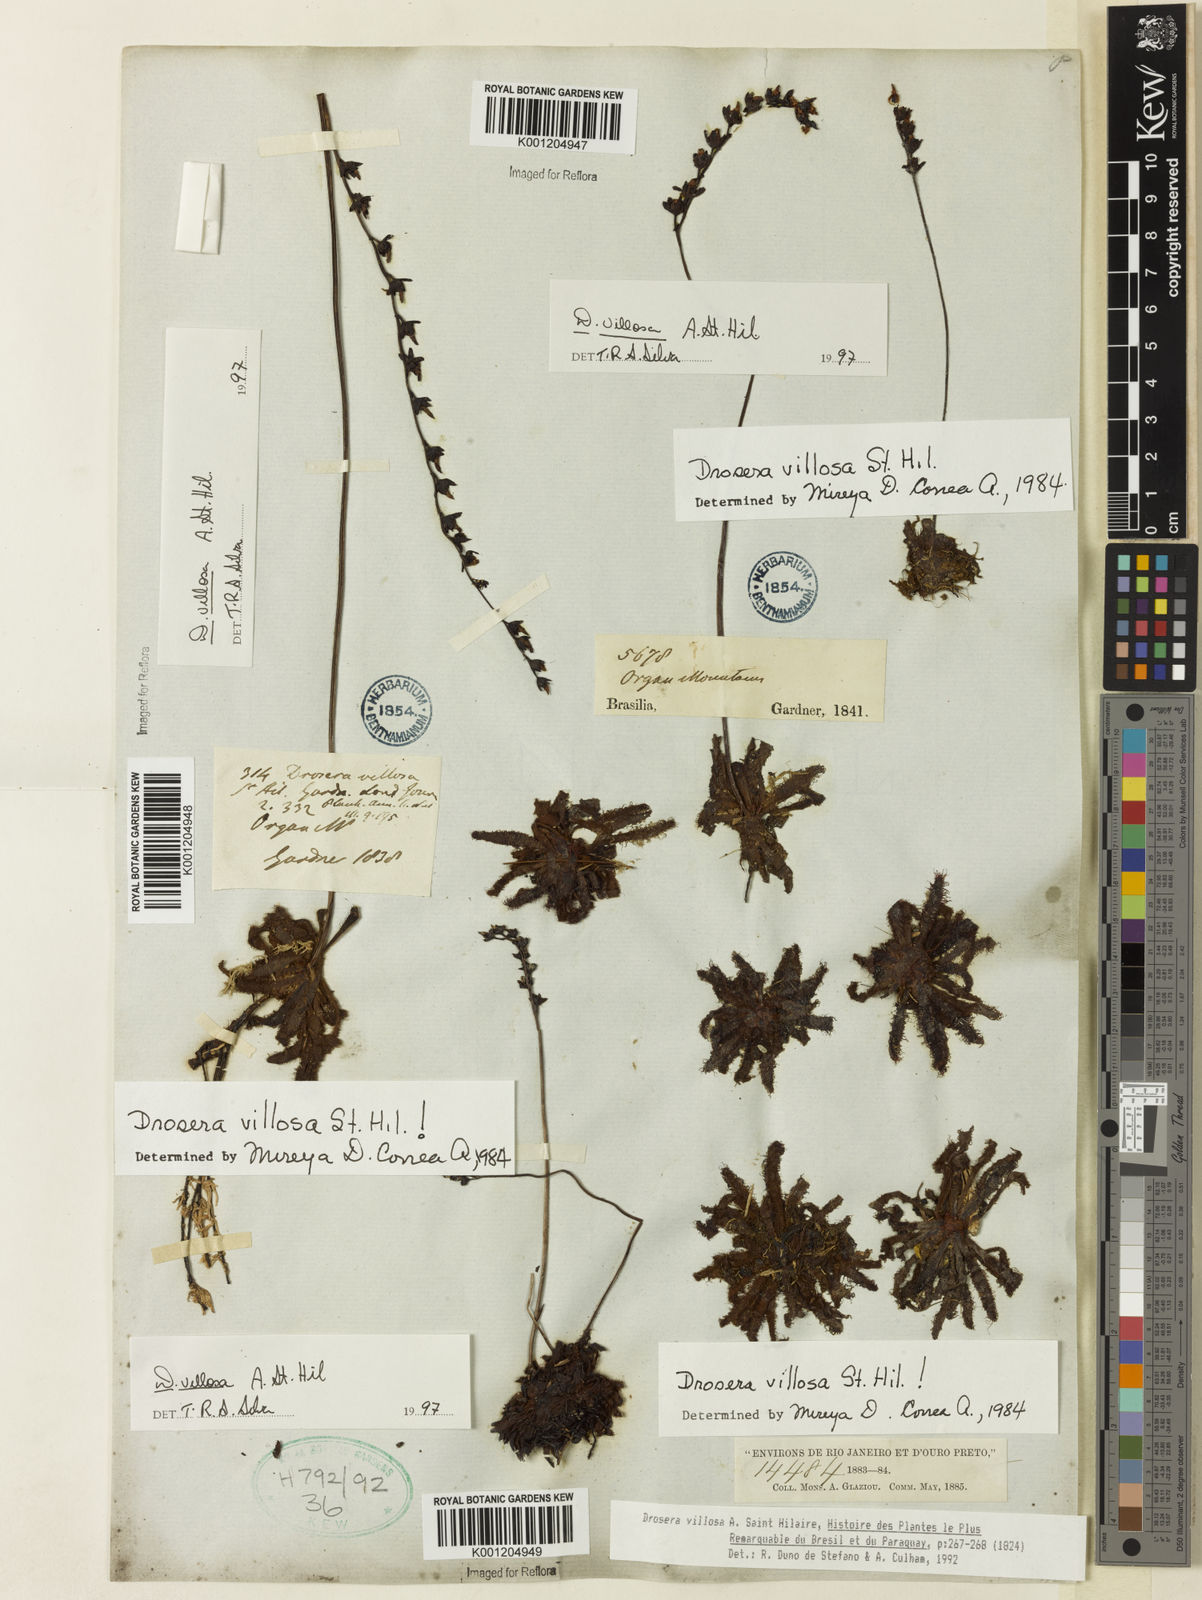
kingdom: Plantae
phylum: Tracheophyta
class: Magnoliopsida
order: Caryophyllales
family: Droseraceae
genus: Drosera
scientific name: Drosera villosa
